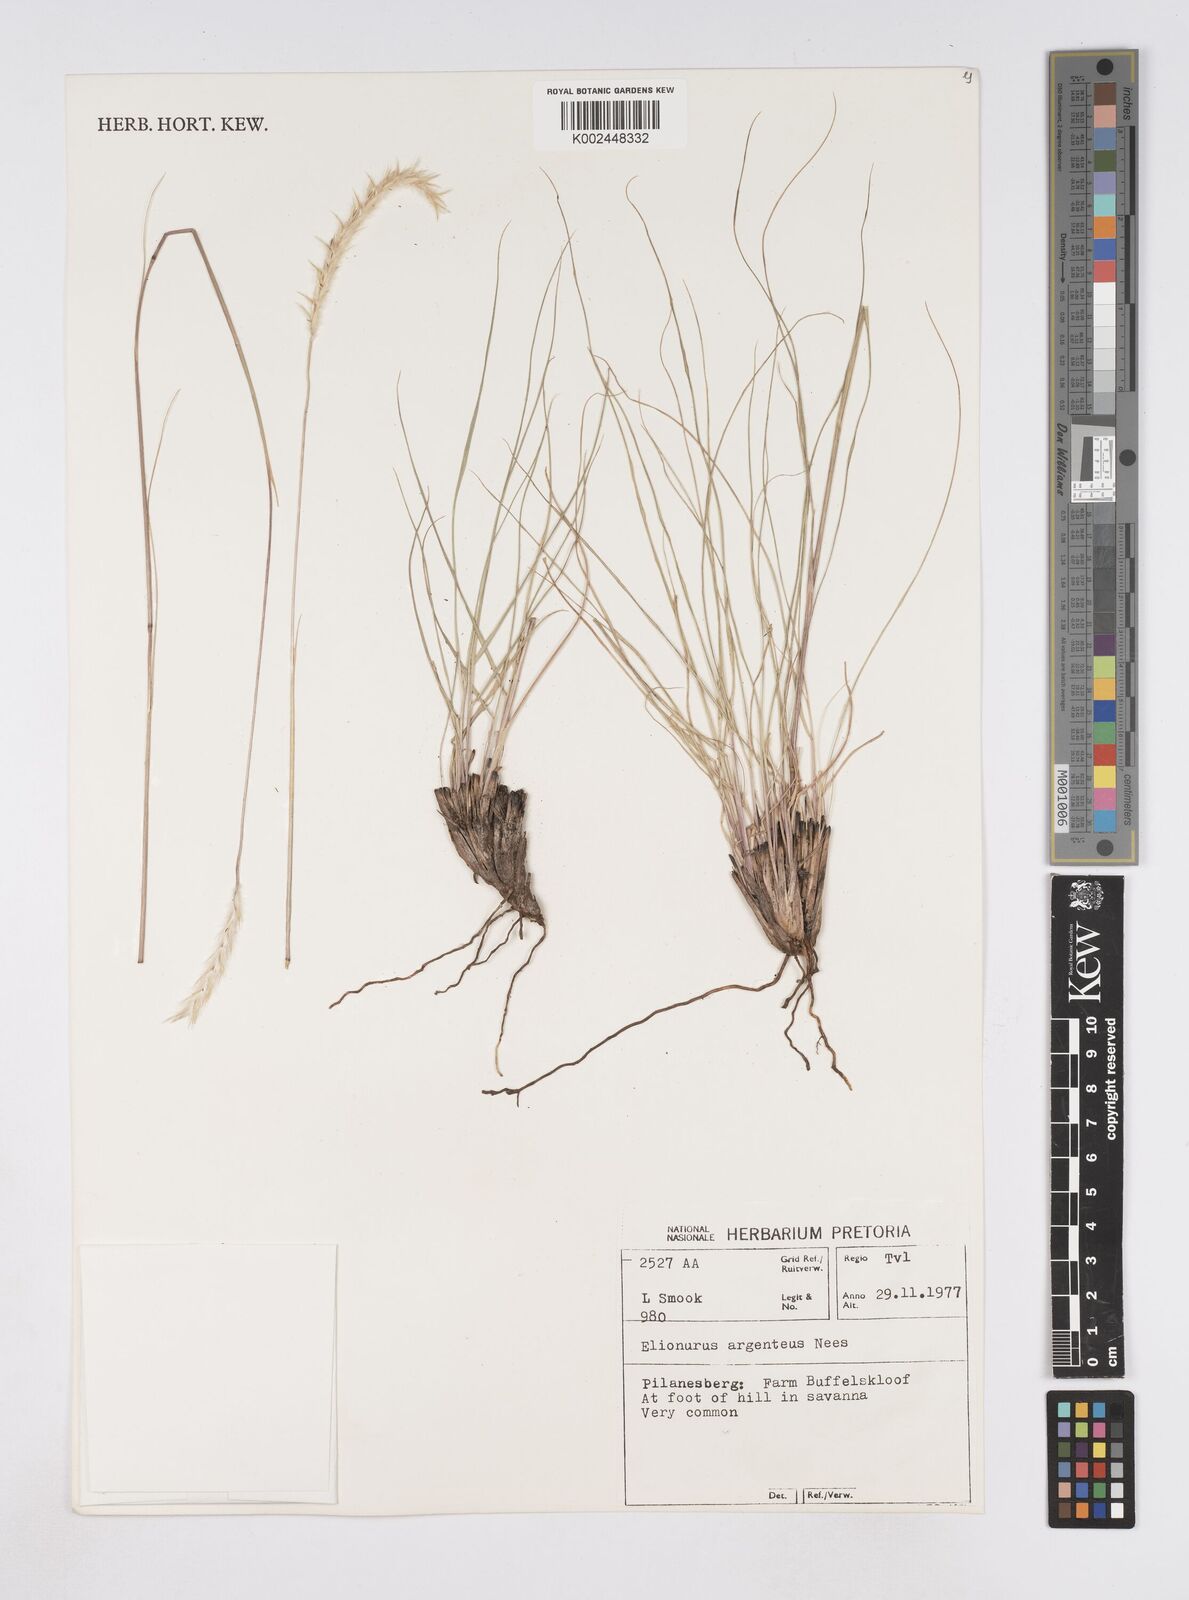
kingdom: Plantae
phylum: Tracheophyta
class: Liliopsida
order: Poales
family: Poaceae
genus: Elionurus
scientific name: Elionurus muticus
